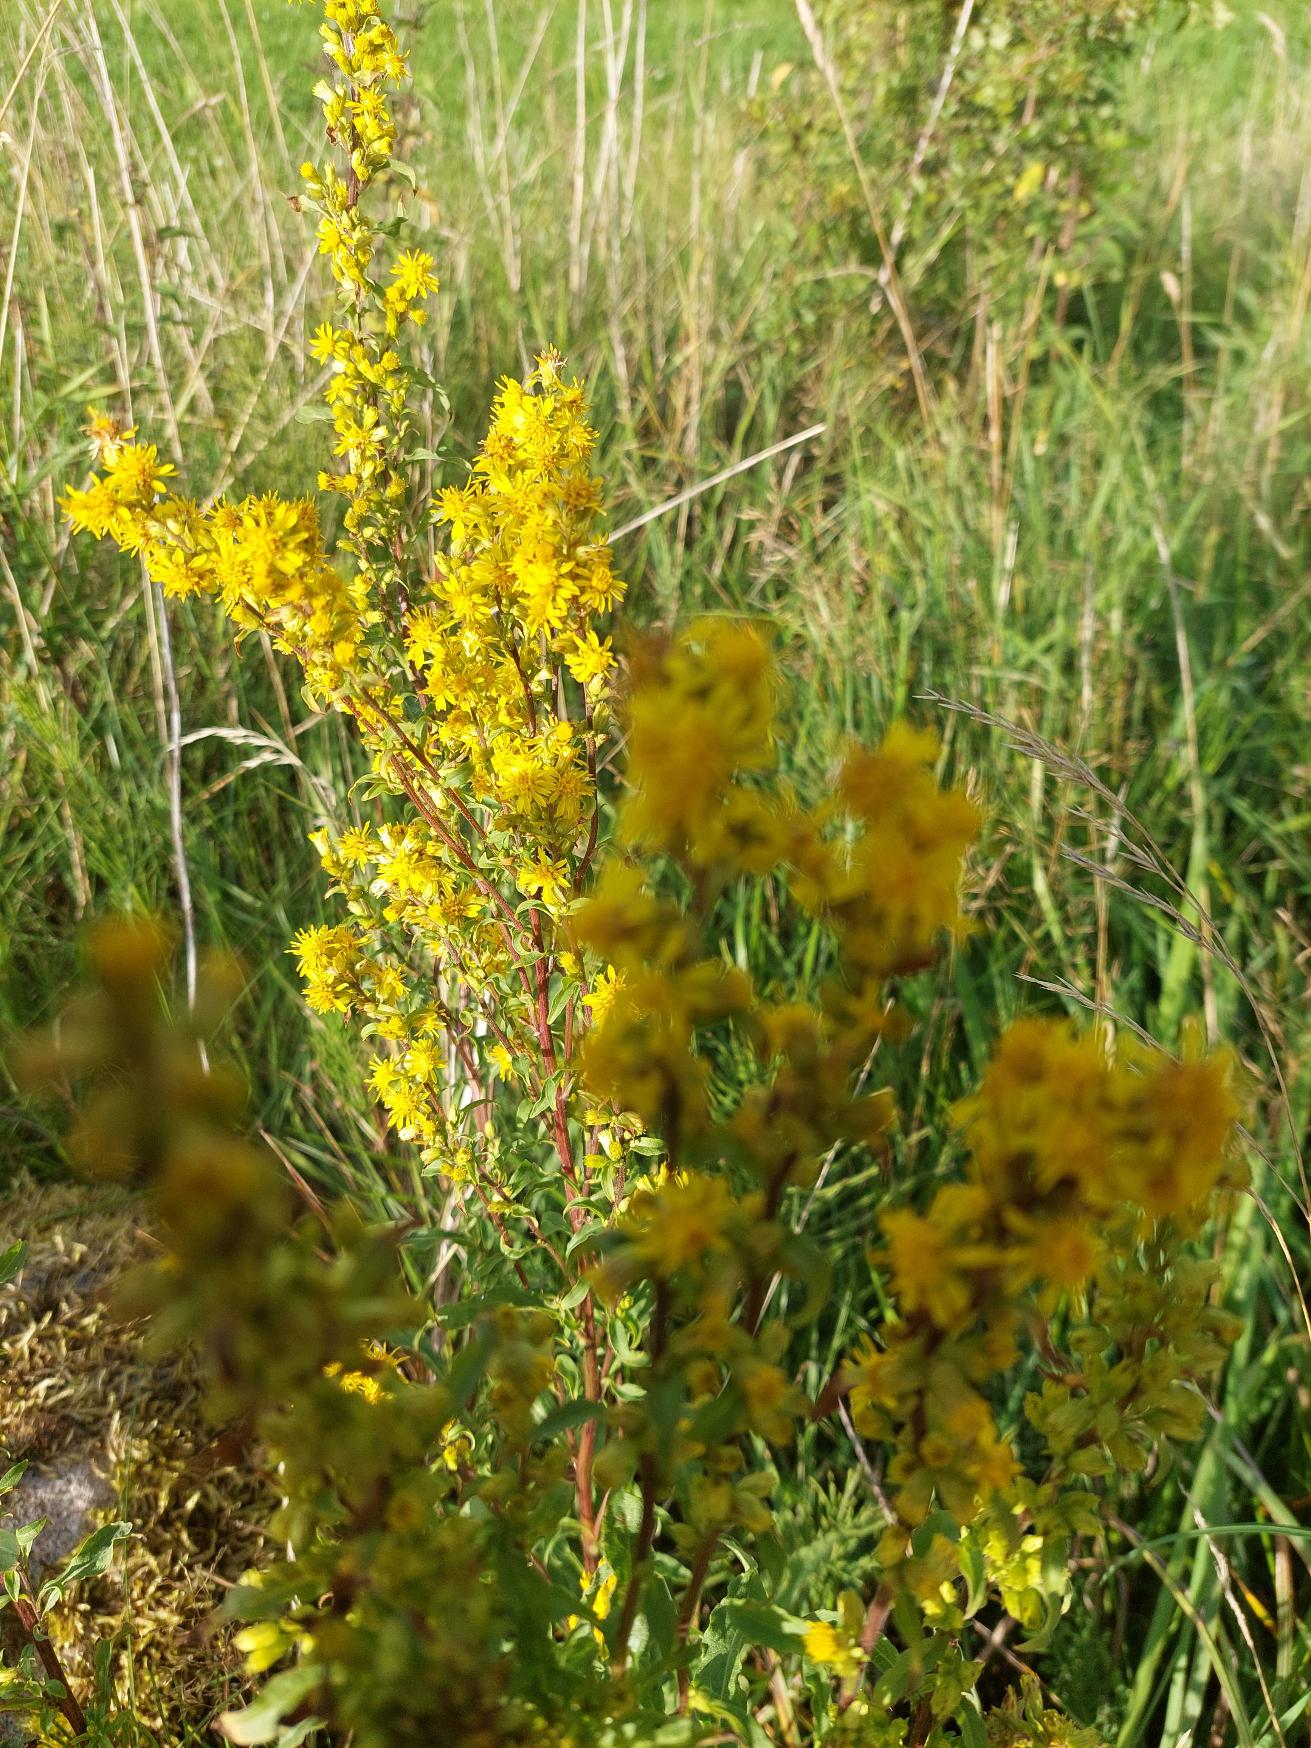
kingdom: Plantae
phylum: Tracheophyta
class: Magnoliopsida
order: Asterales
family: Asteraceae
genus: Solidago
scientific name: Solidago virgaurea
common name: Almindelig gyldenris
